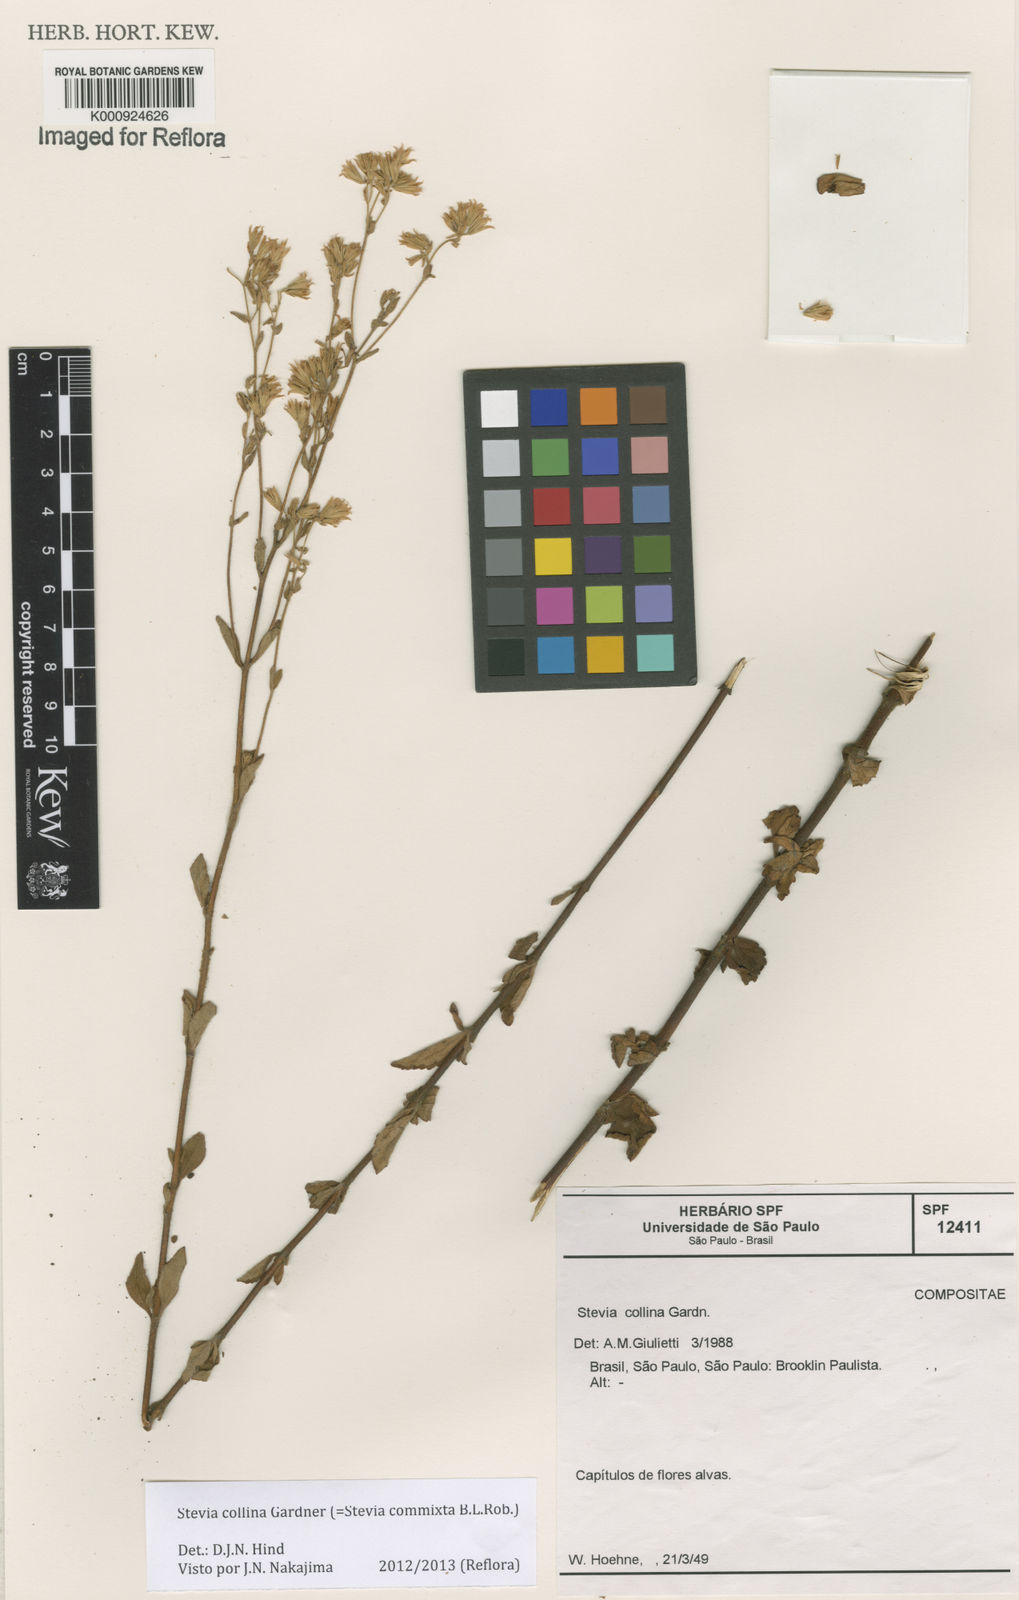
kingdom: Plantae
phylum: Tracheophyta
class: Magnoliopsida
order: Asterales
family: Asteraceae
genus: Stevia
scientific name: Stevia collina
